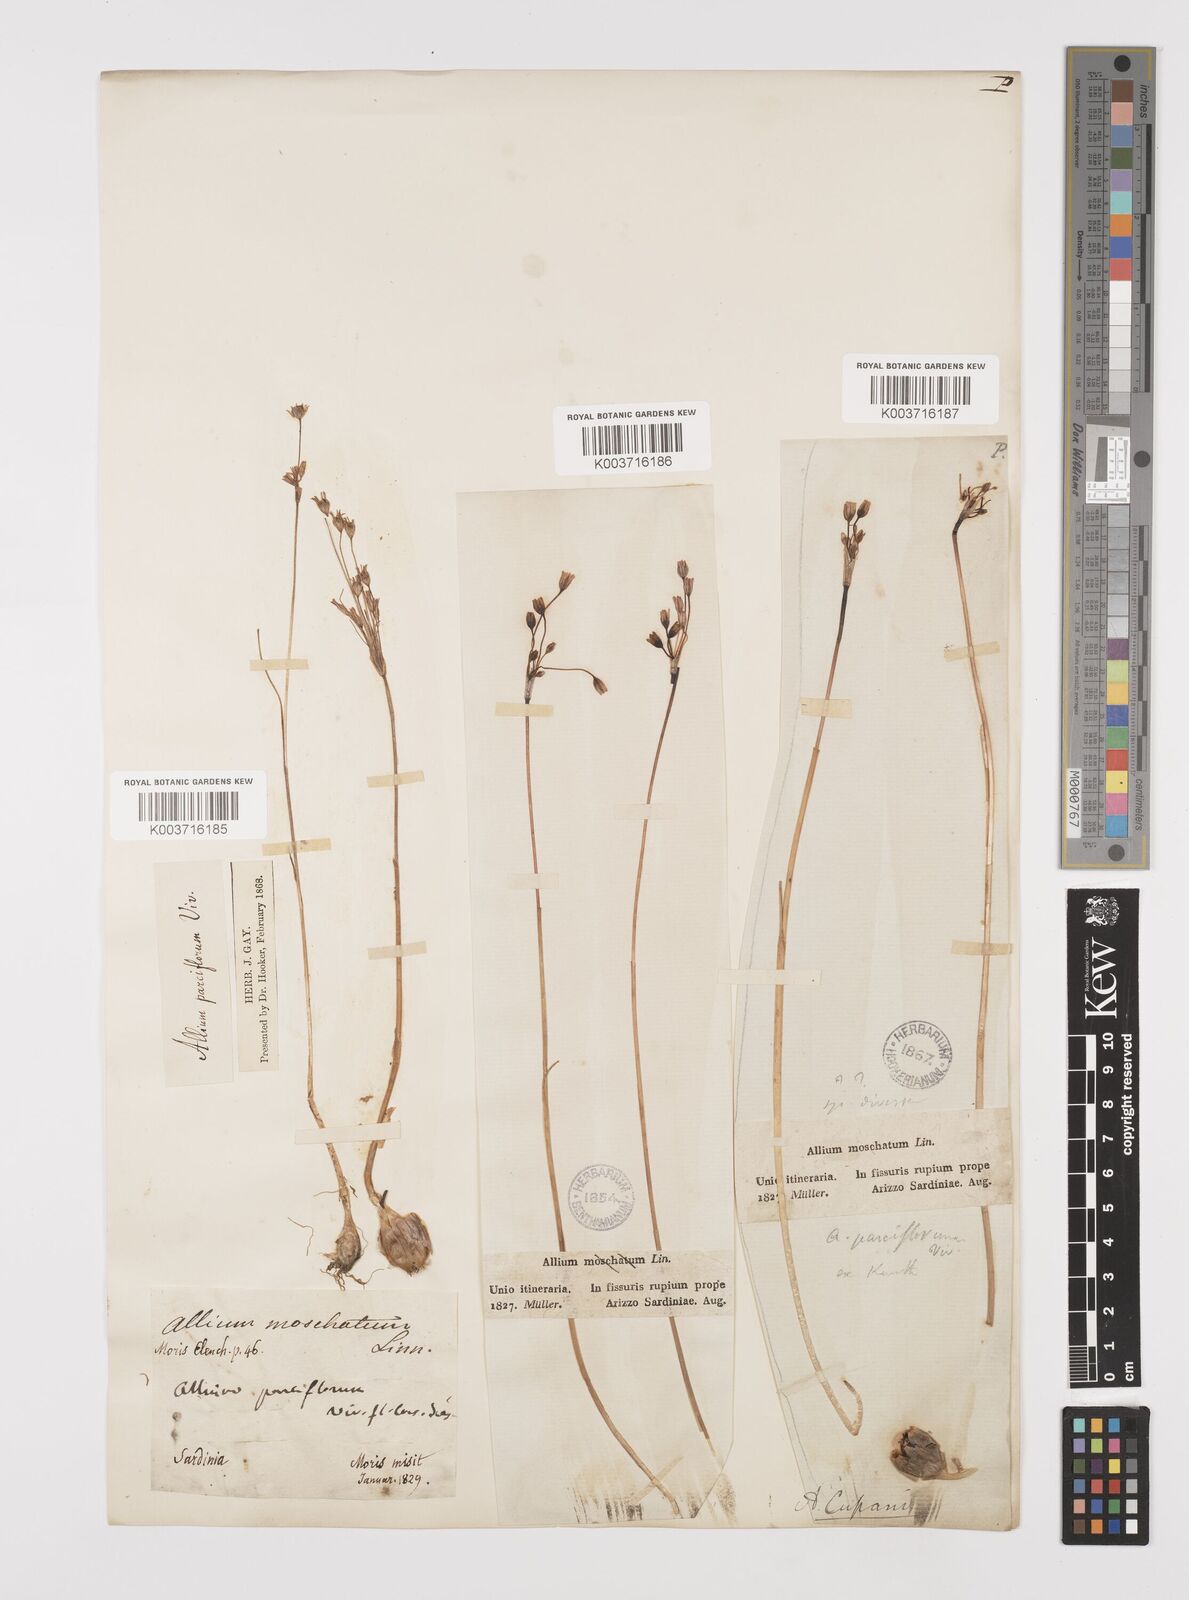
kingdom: Plantae
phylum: Tracheophyta
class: Liliopsida
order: Asparagales
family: Amaryllidaceae
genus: Allium
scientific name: Allium parciflorum
